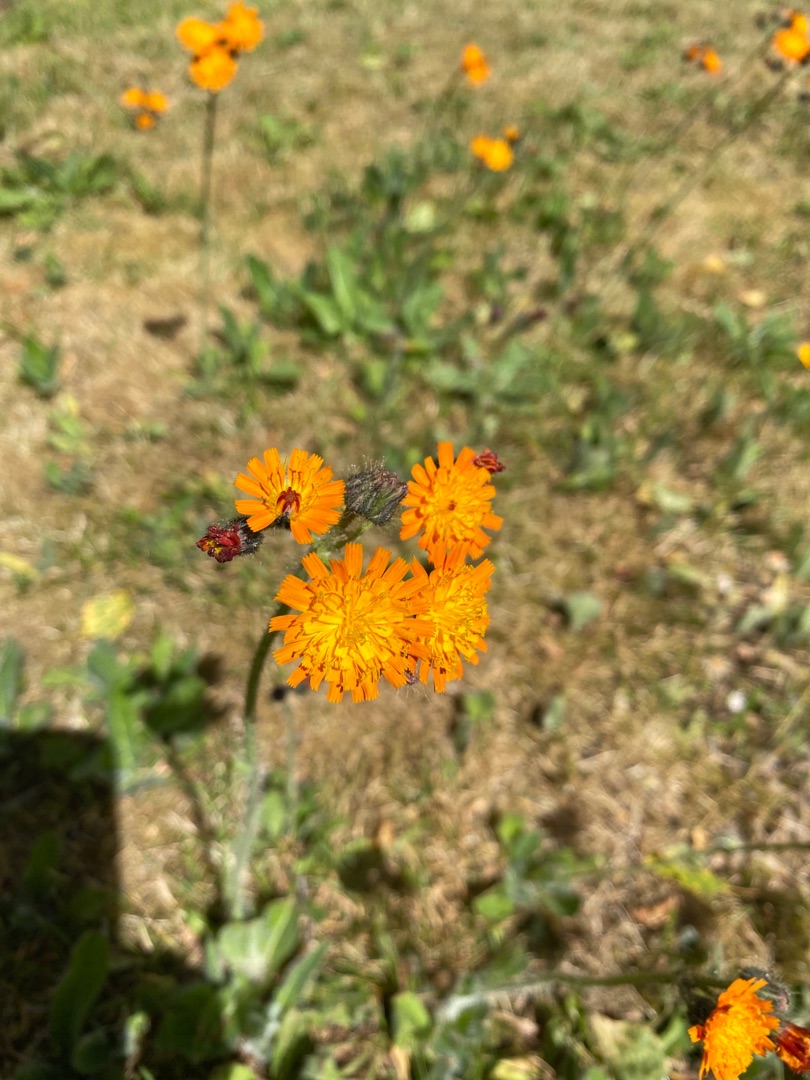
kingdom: Plantae
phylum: Tracheophyta
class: Magnoliopsida
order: Asterales
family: Asteraceae
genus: Pilosella
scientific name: Pilosella aurantiaca
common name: Pomerans-høgeurt
